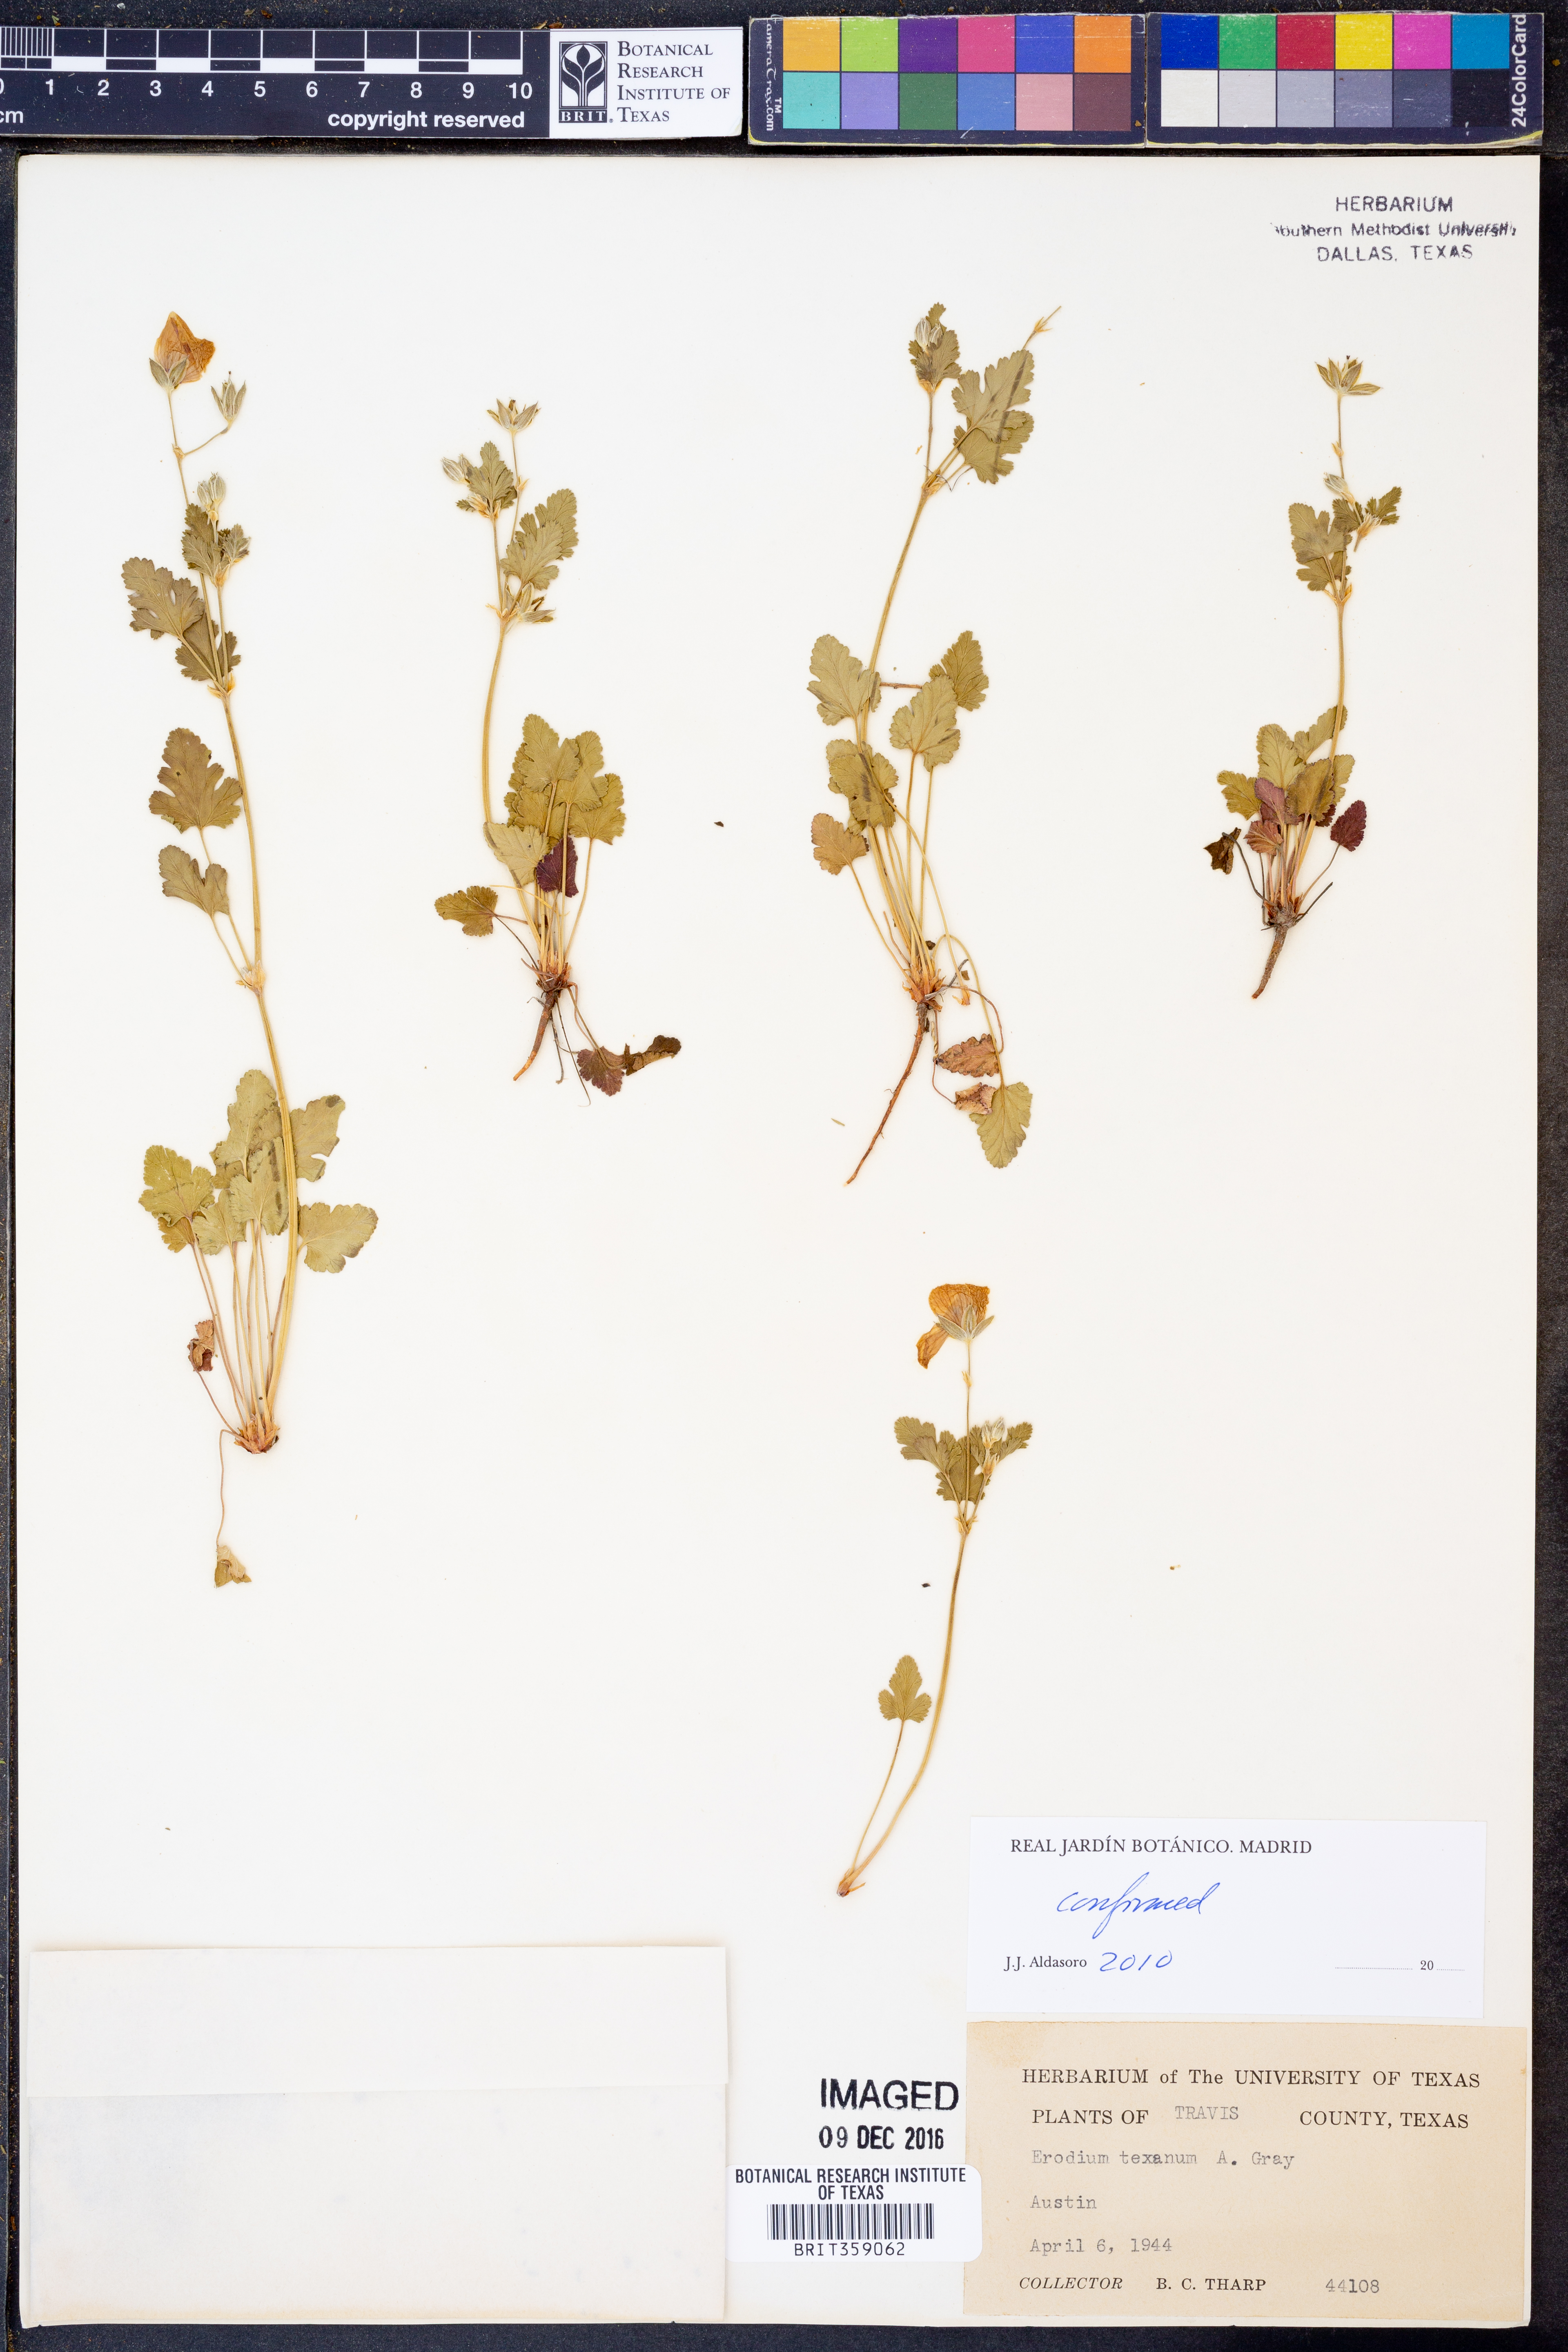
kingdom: Plantae
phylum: Tracheophyta
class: Magnoliopsida
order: Geraniales
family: Geraniaceae
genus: Erodium
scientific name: Erodium texanum
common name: Texas stork's-bill
